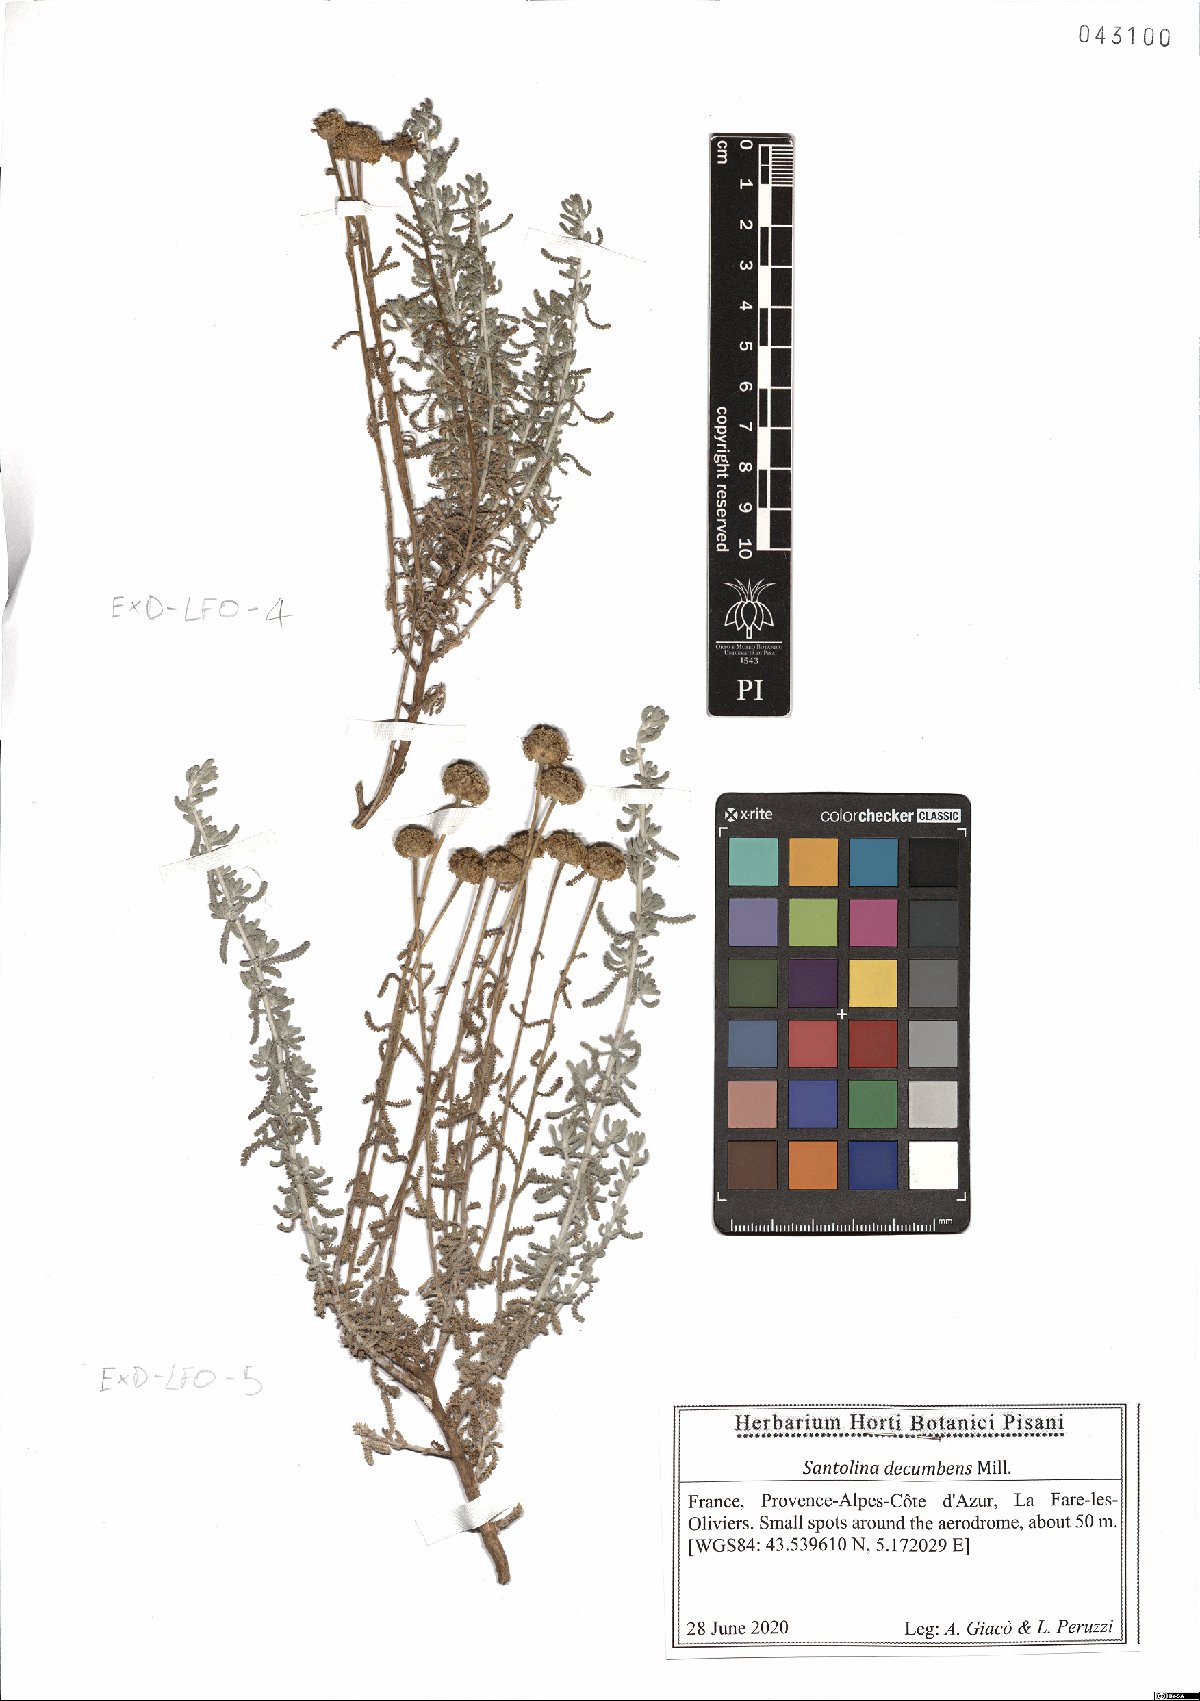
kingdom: Plantae
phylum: Tracheophyta
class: Magnoliopsida
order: Asterales
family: Asteraceae
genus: Santolina
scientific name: Santolina decumbens
